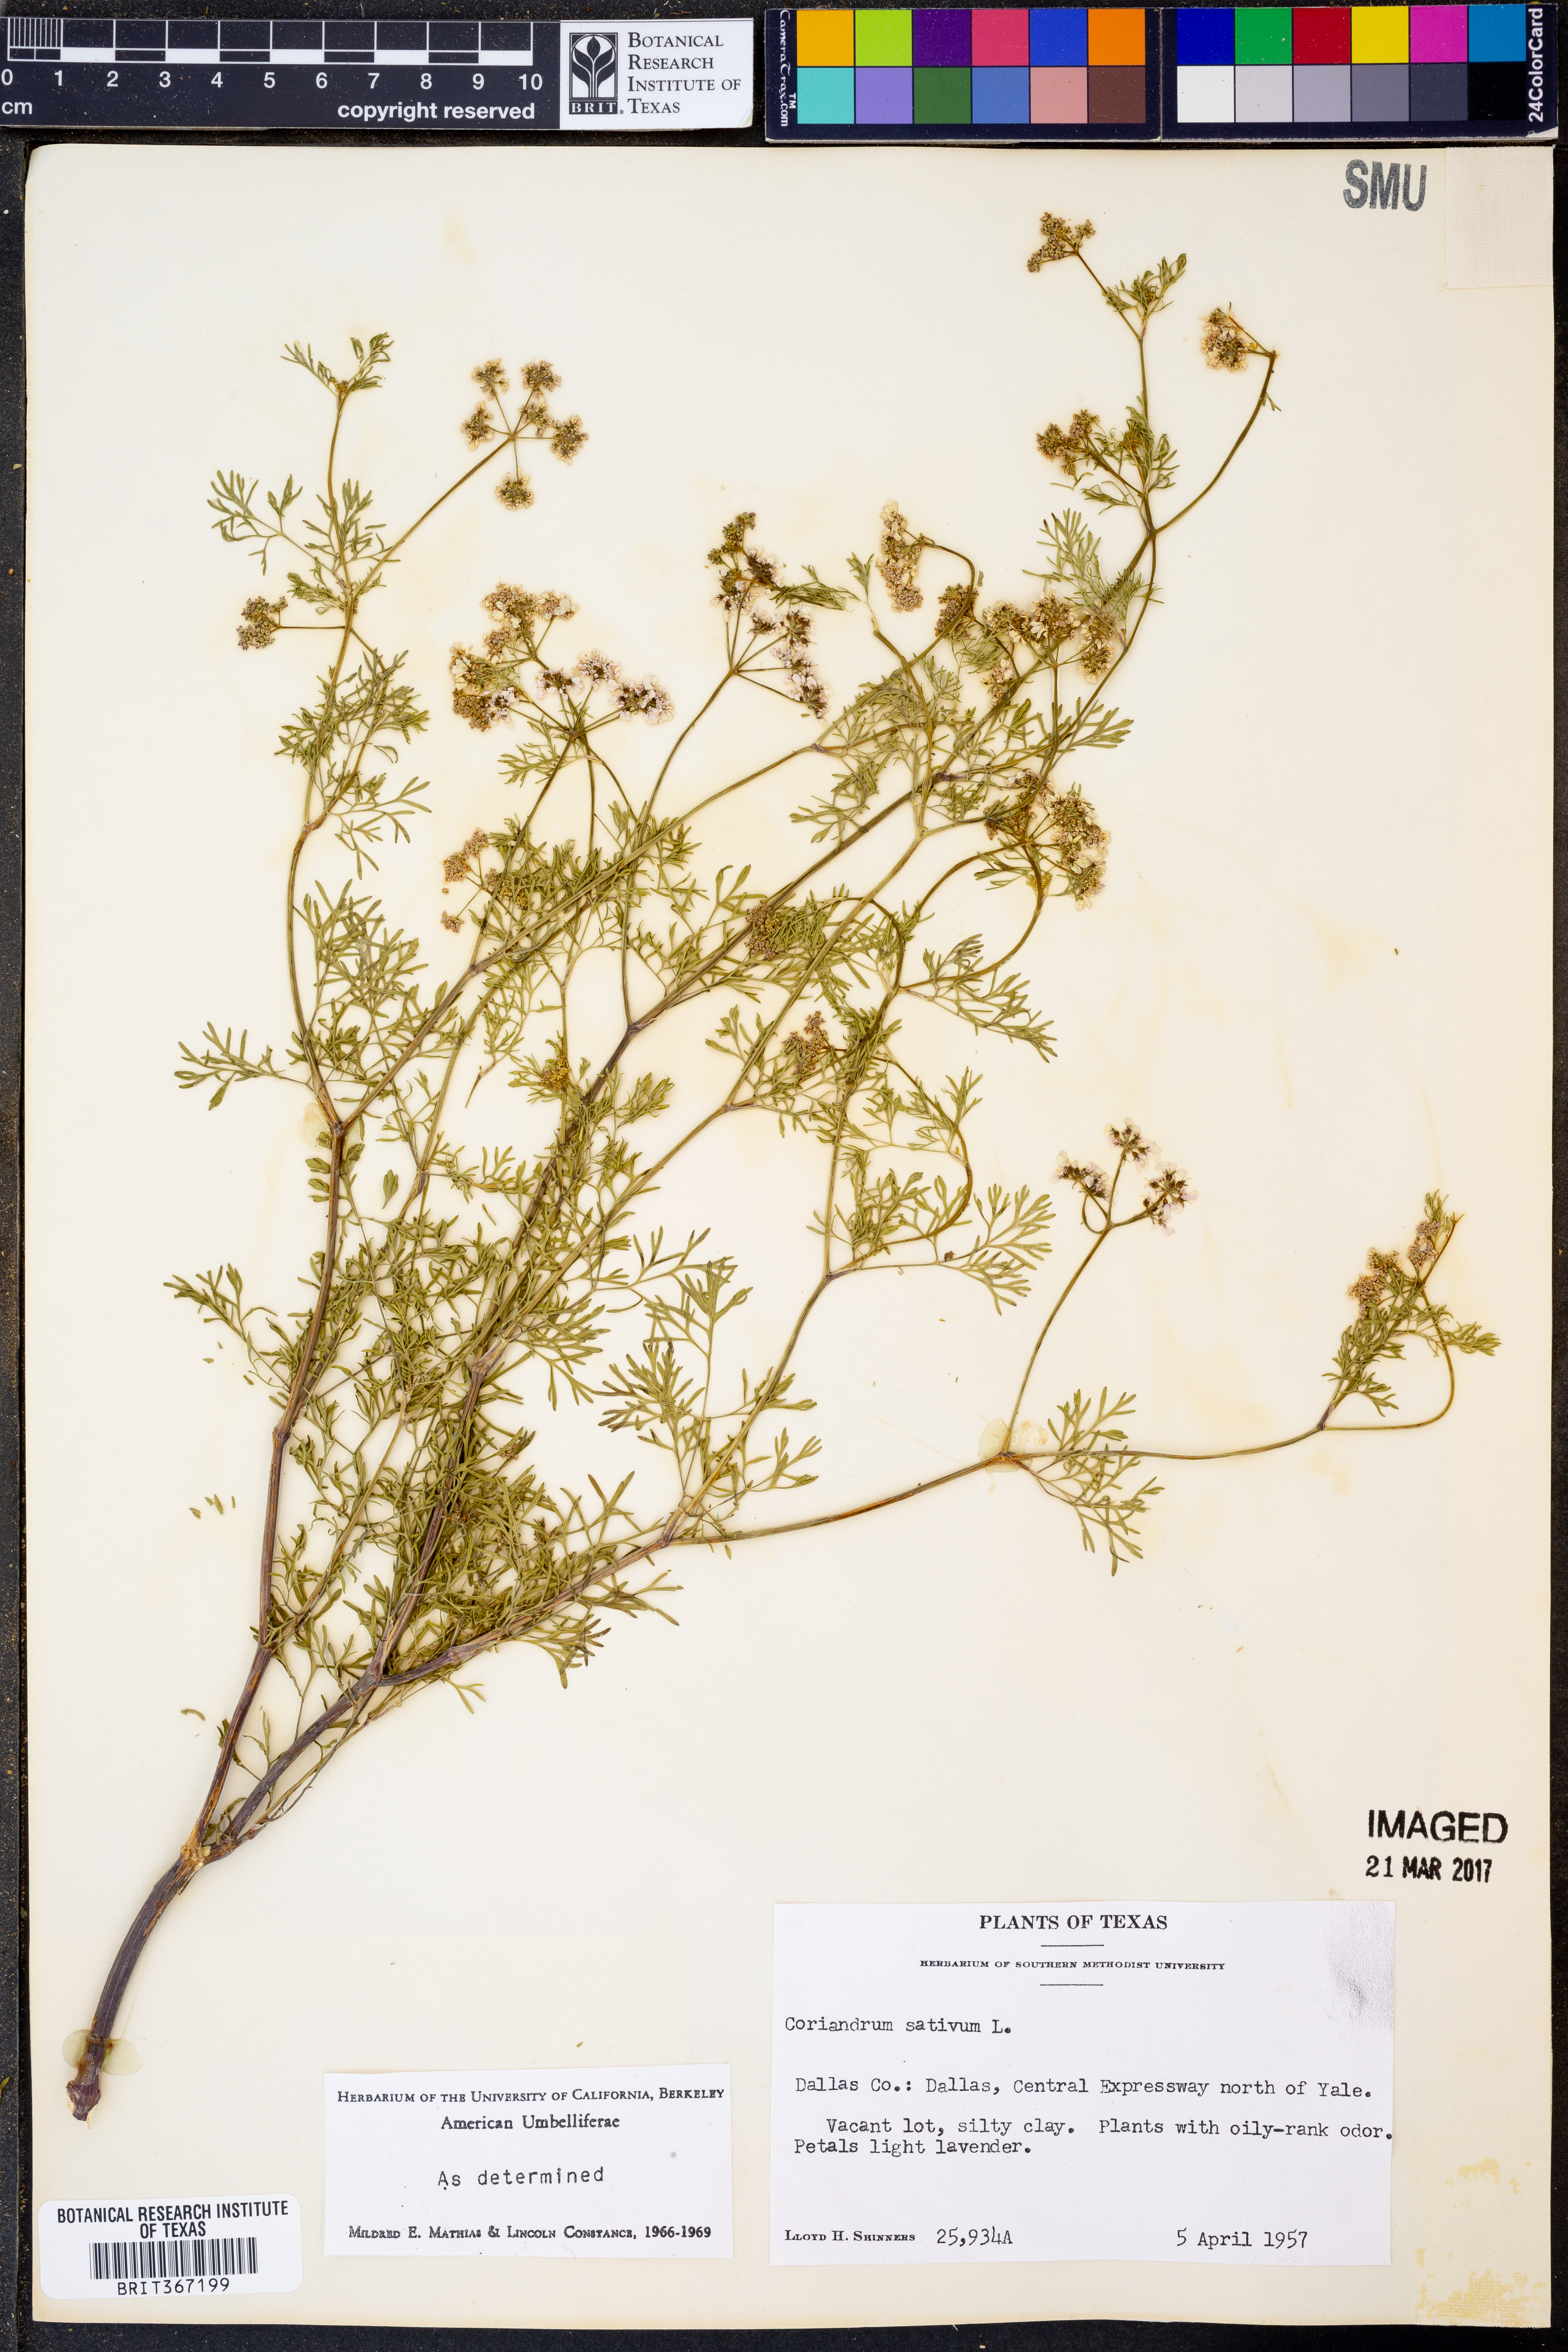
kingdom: Plantae
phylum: Tracheophyta
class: Magnoliopsida
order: Apiales
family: Apiaceae
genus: Coriandrum
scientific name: Coriandrum sativum
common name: Coriander
